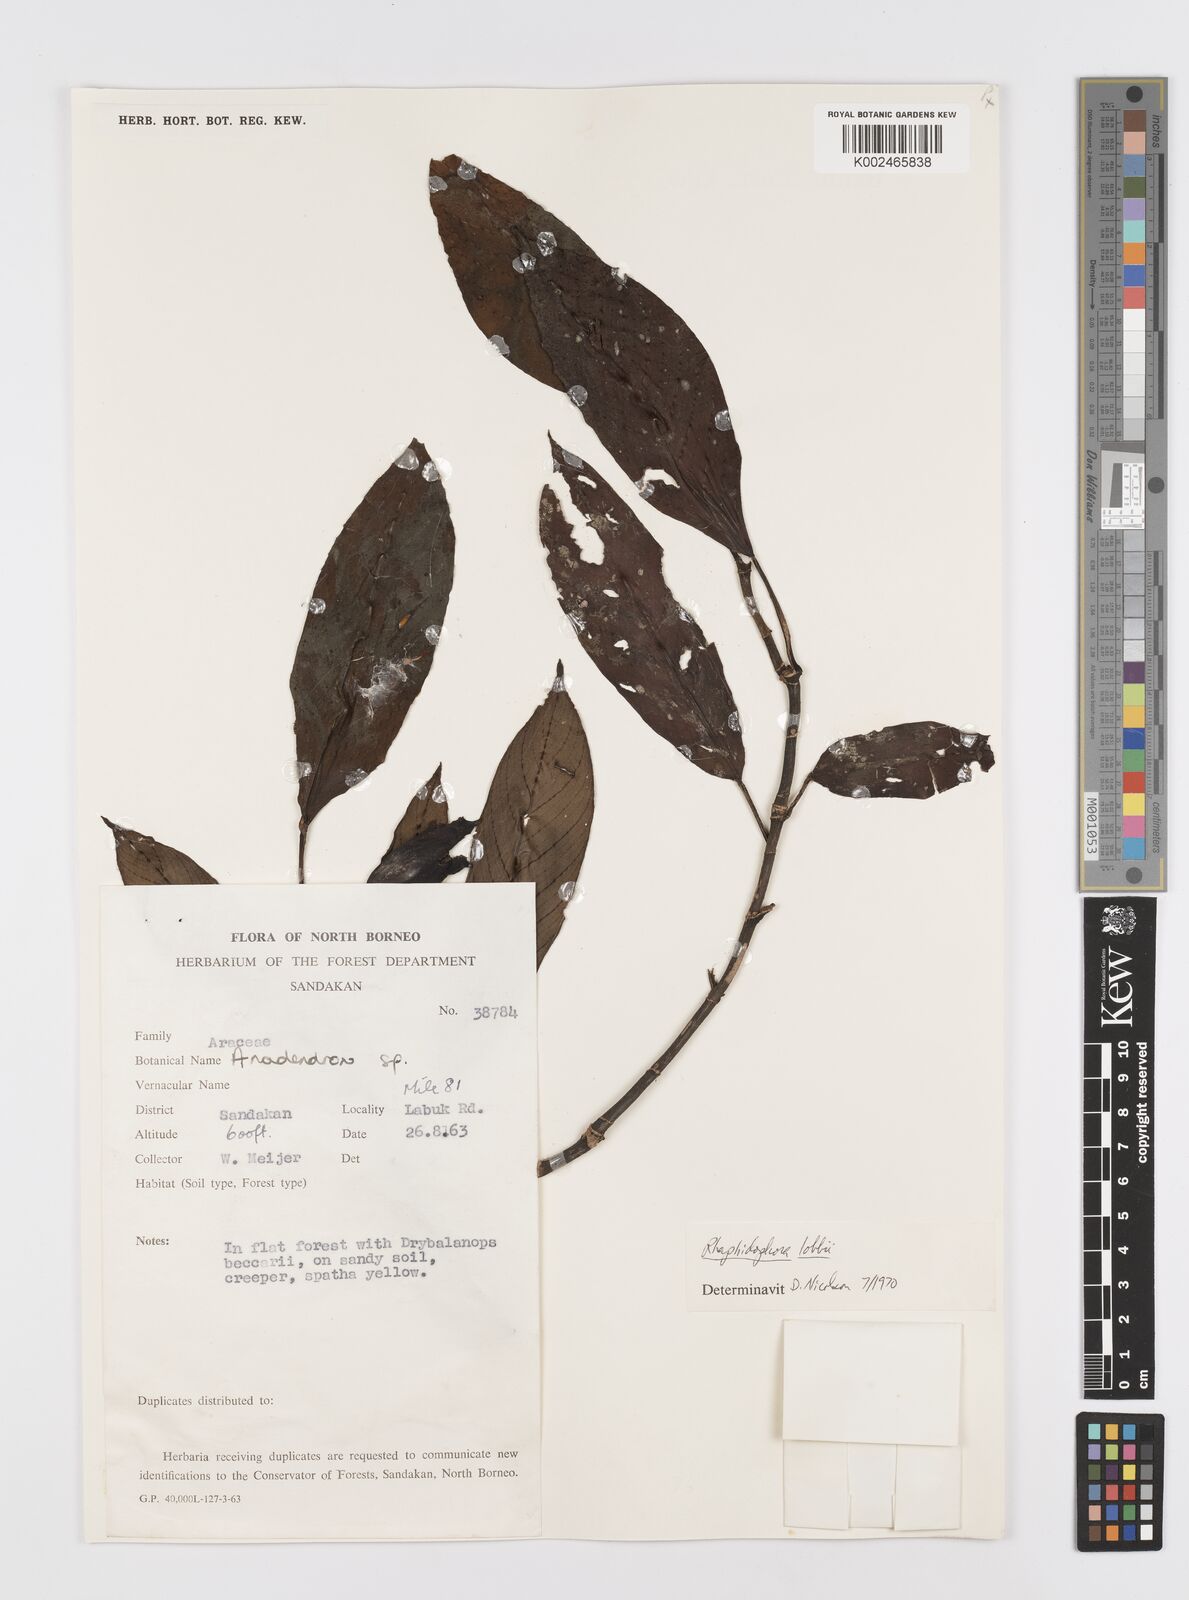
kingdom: Plantae
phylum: Tracheophyta
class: Liliopsida
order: Alismatales
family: Araceae
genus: Rhaphidophora
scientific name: Rhaphidophora lobbii
